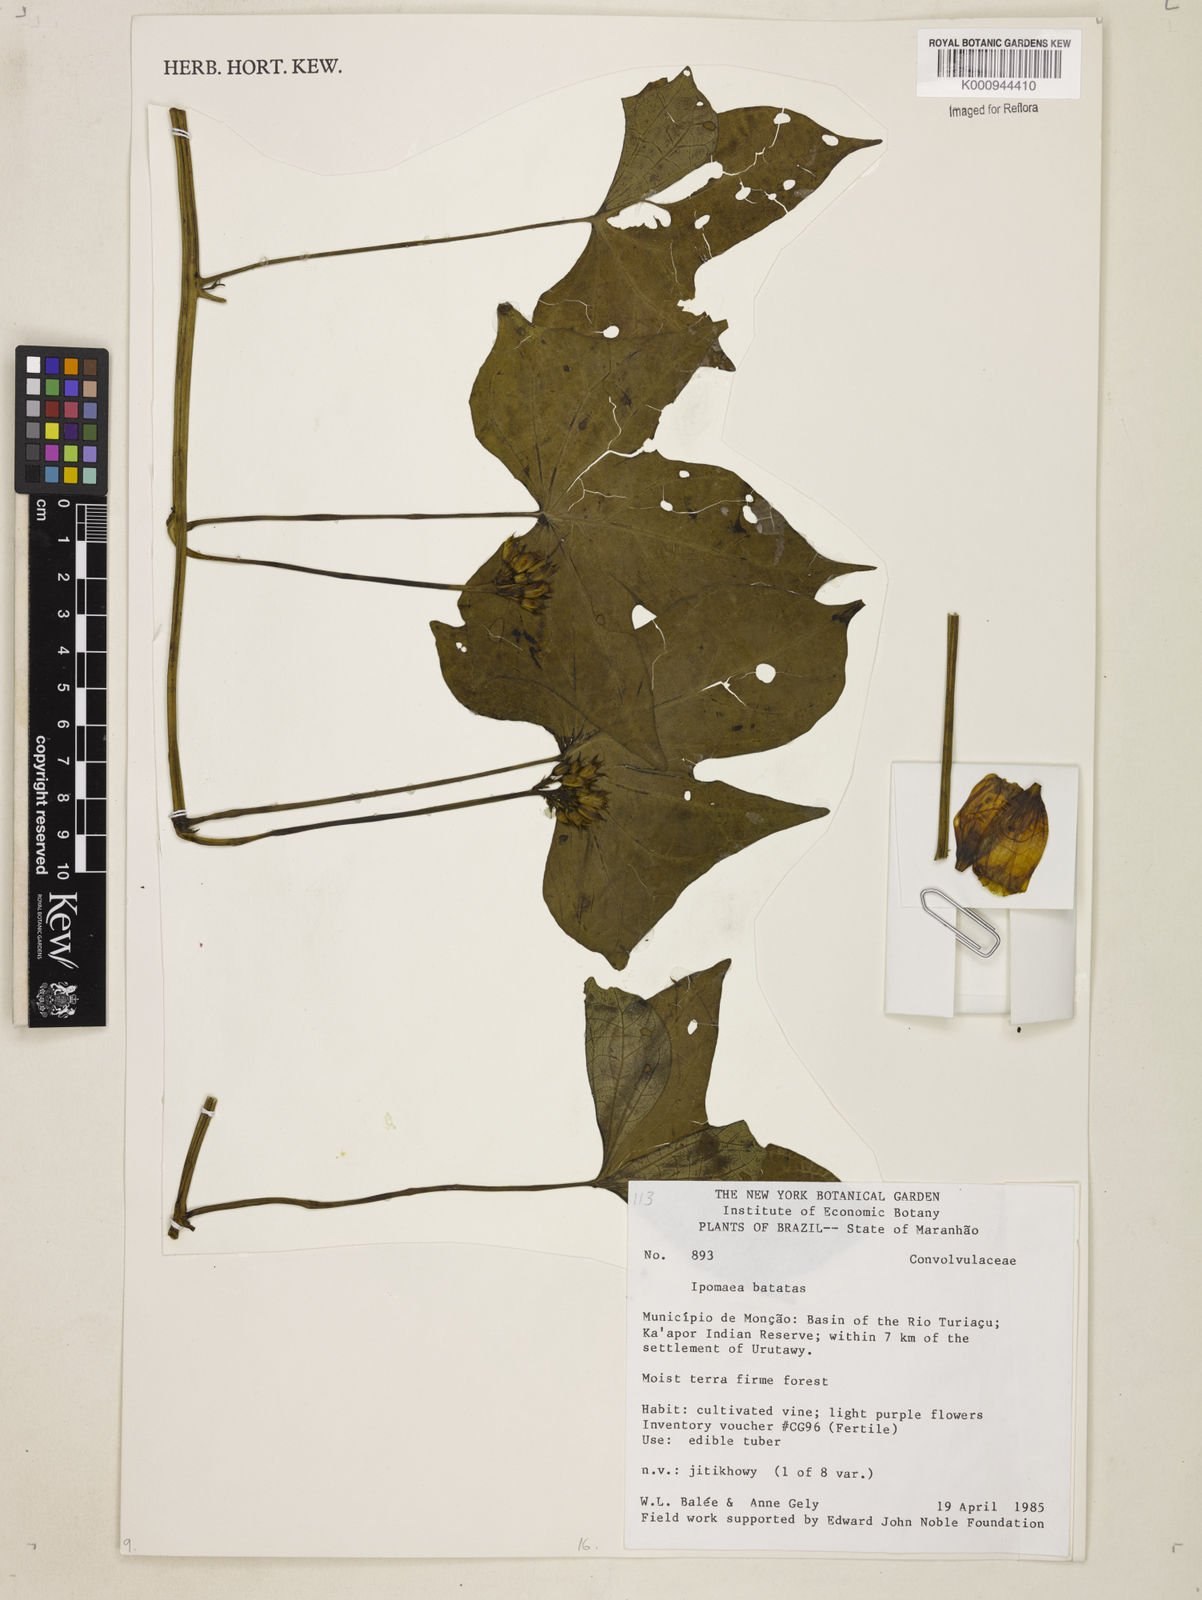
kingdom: Plantae
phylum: Tracheophyta
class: Magnoliopsida
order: Solanales
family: Convolvulaceae
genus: Ipomoea
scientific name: Ipomoea batatas
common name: Sweet-potato
